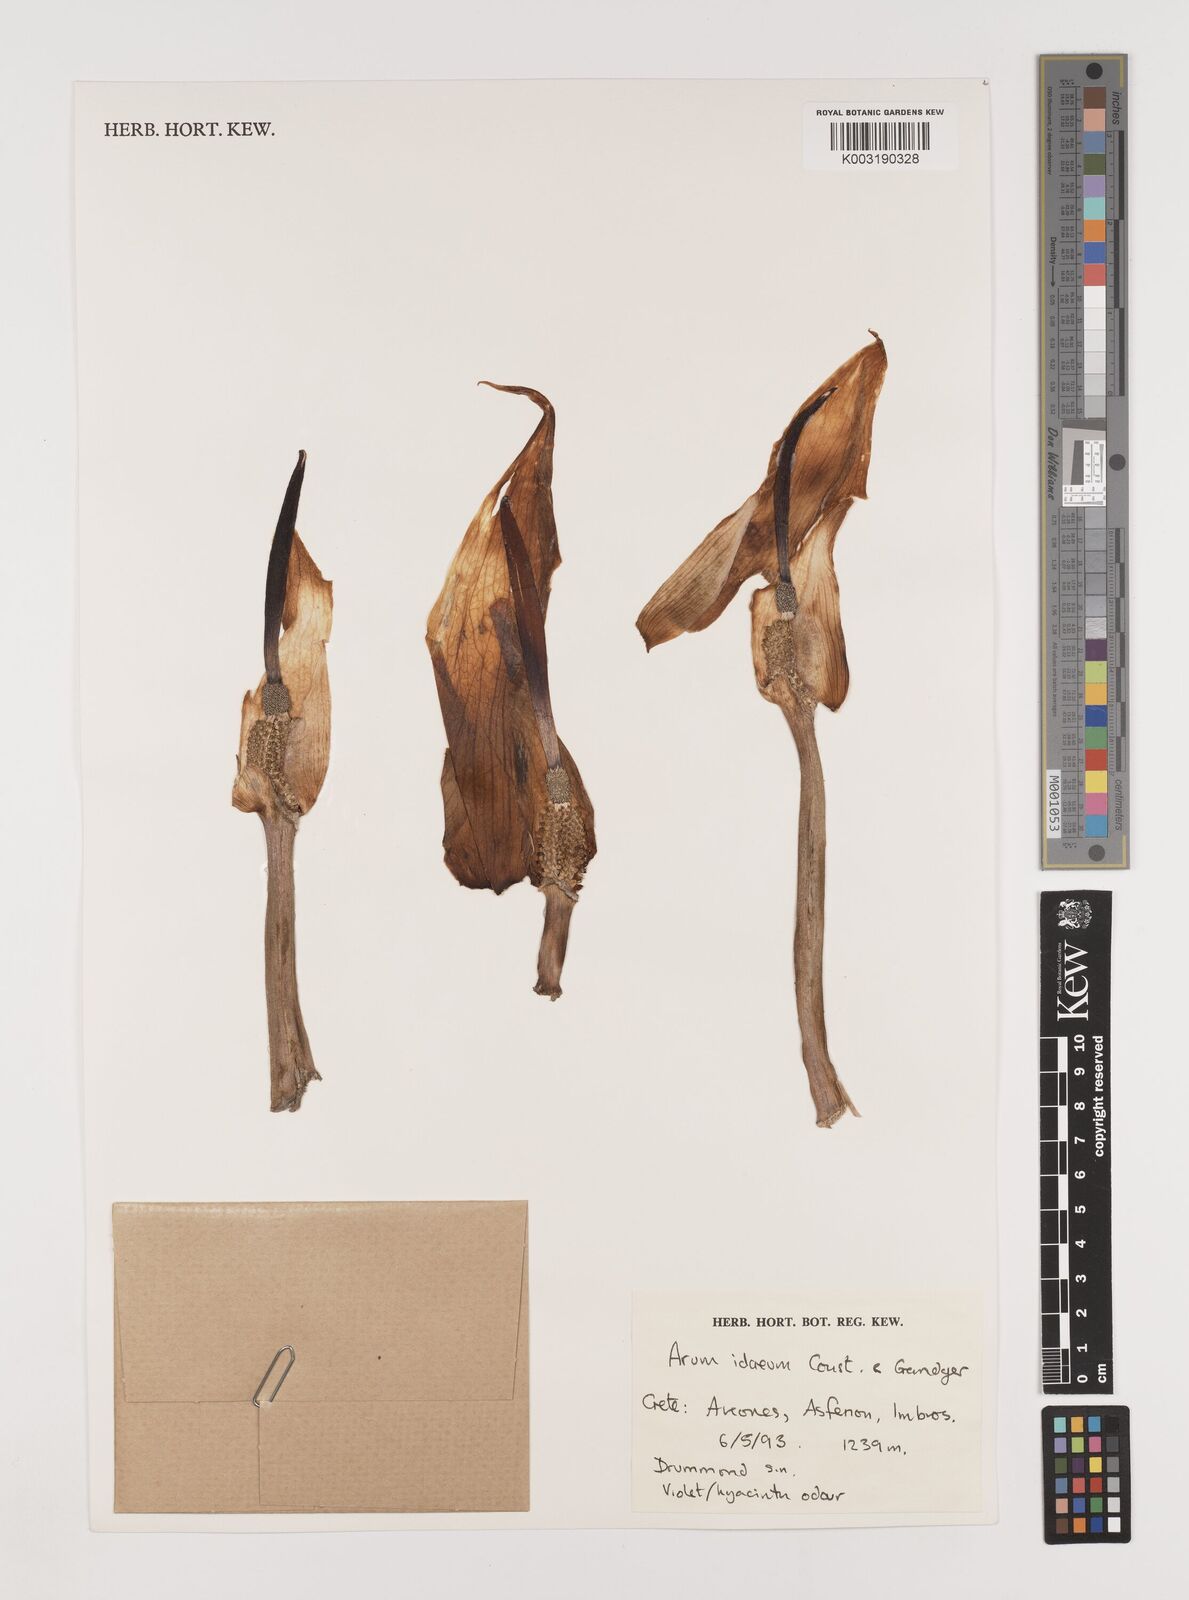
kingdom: Plantae
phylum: Tracheophyta
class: Liliopsida
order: Alismatales
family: Araceae
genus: Arum
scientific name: Arum idaeum
